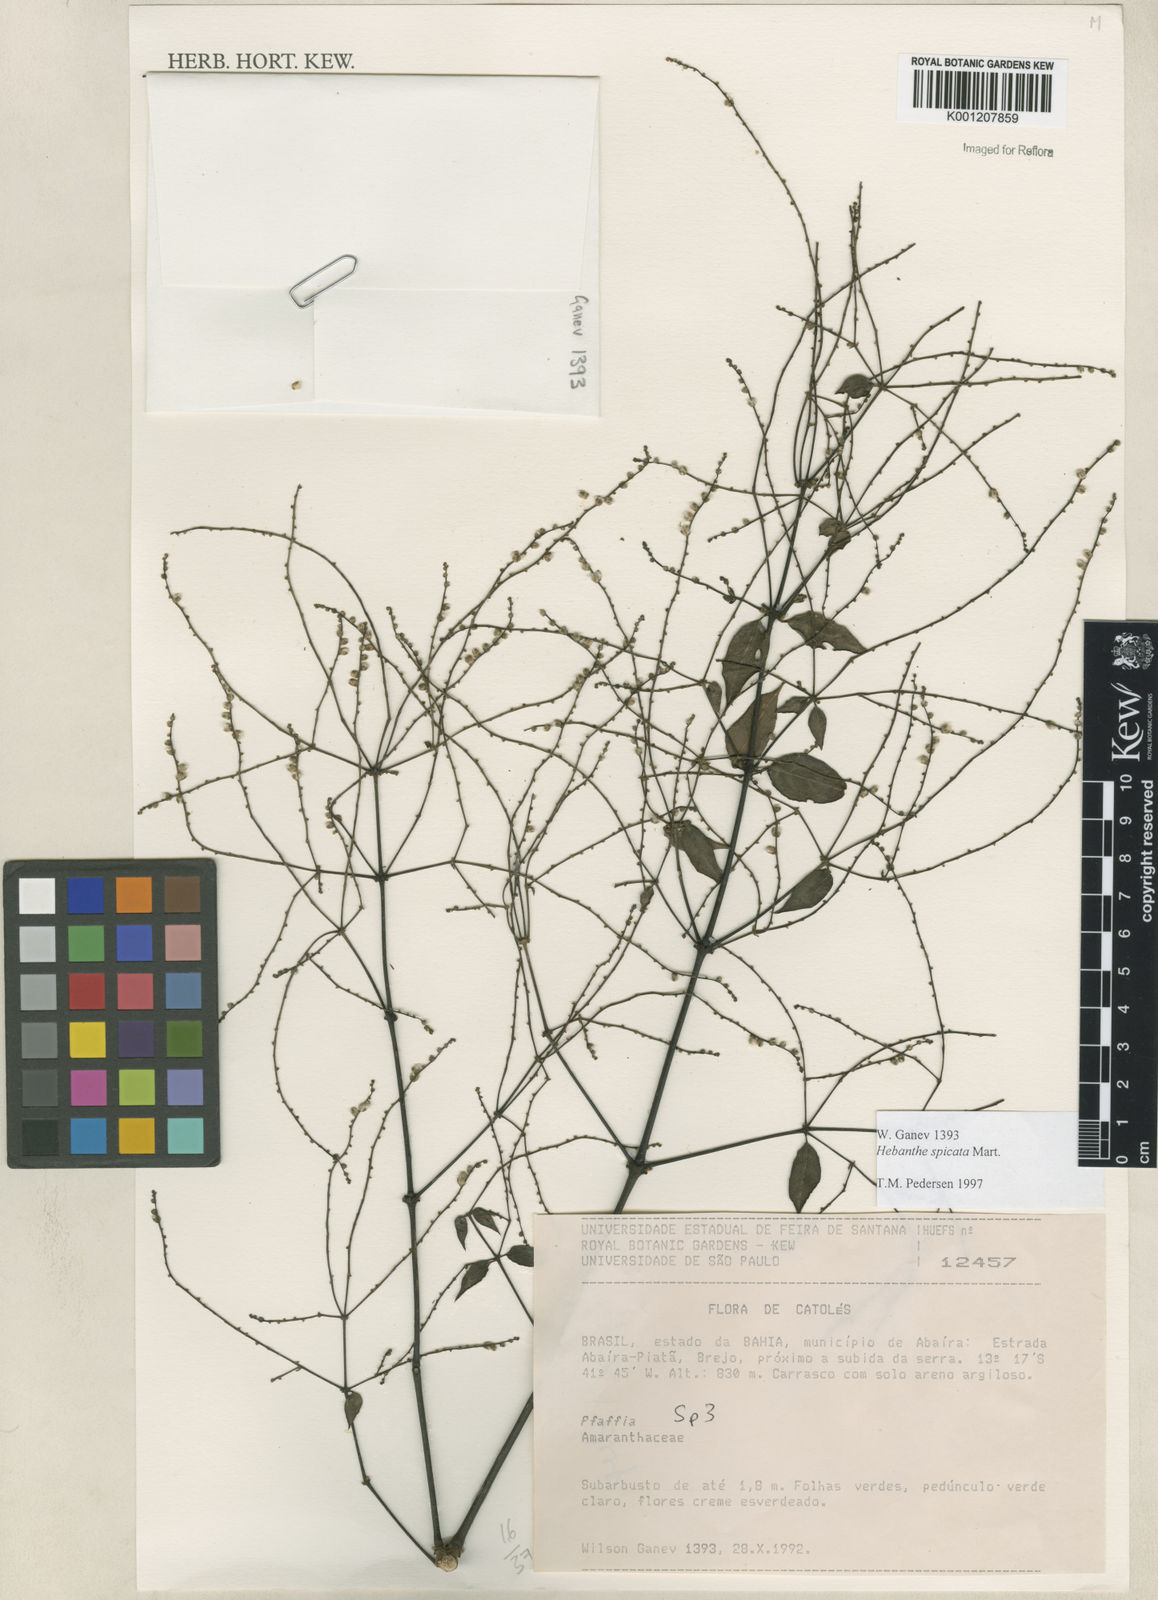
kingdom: Plantae
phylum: Tracheophyta
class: Magnoliopsida
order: Caryophyllales
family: Amaranthaceae
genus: Hebanthe
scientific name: Hebanthe spicata
